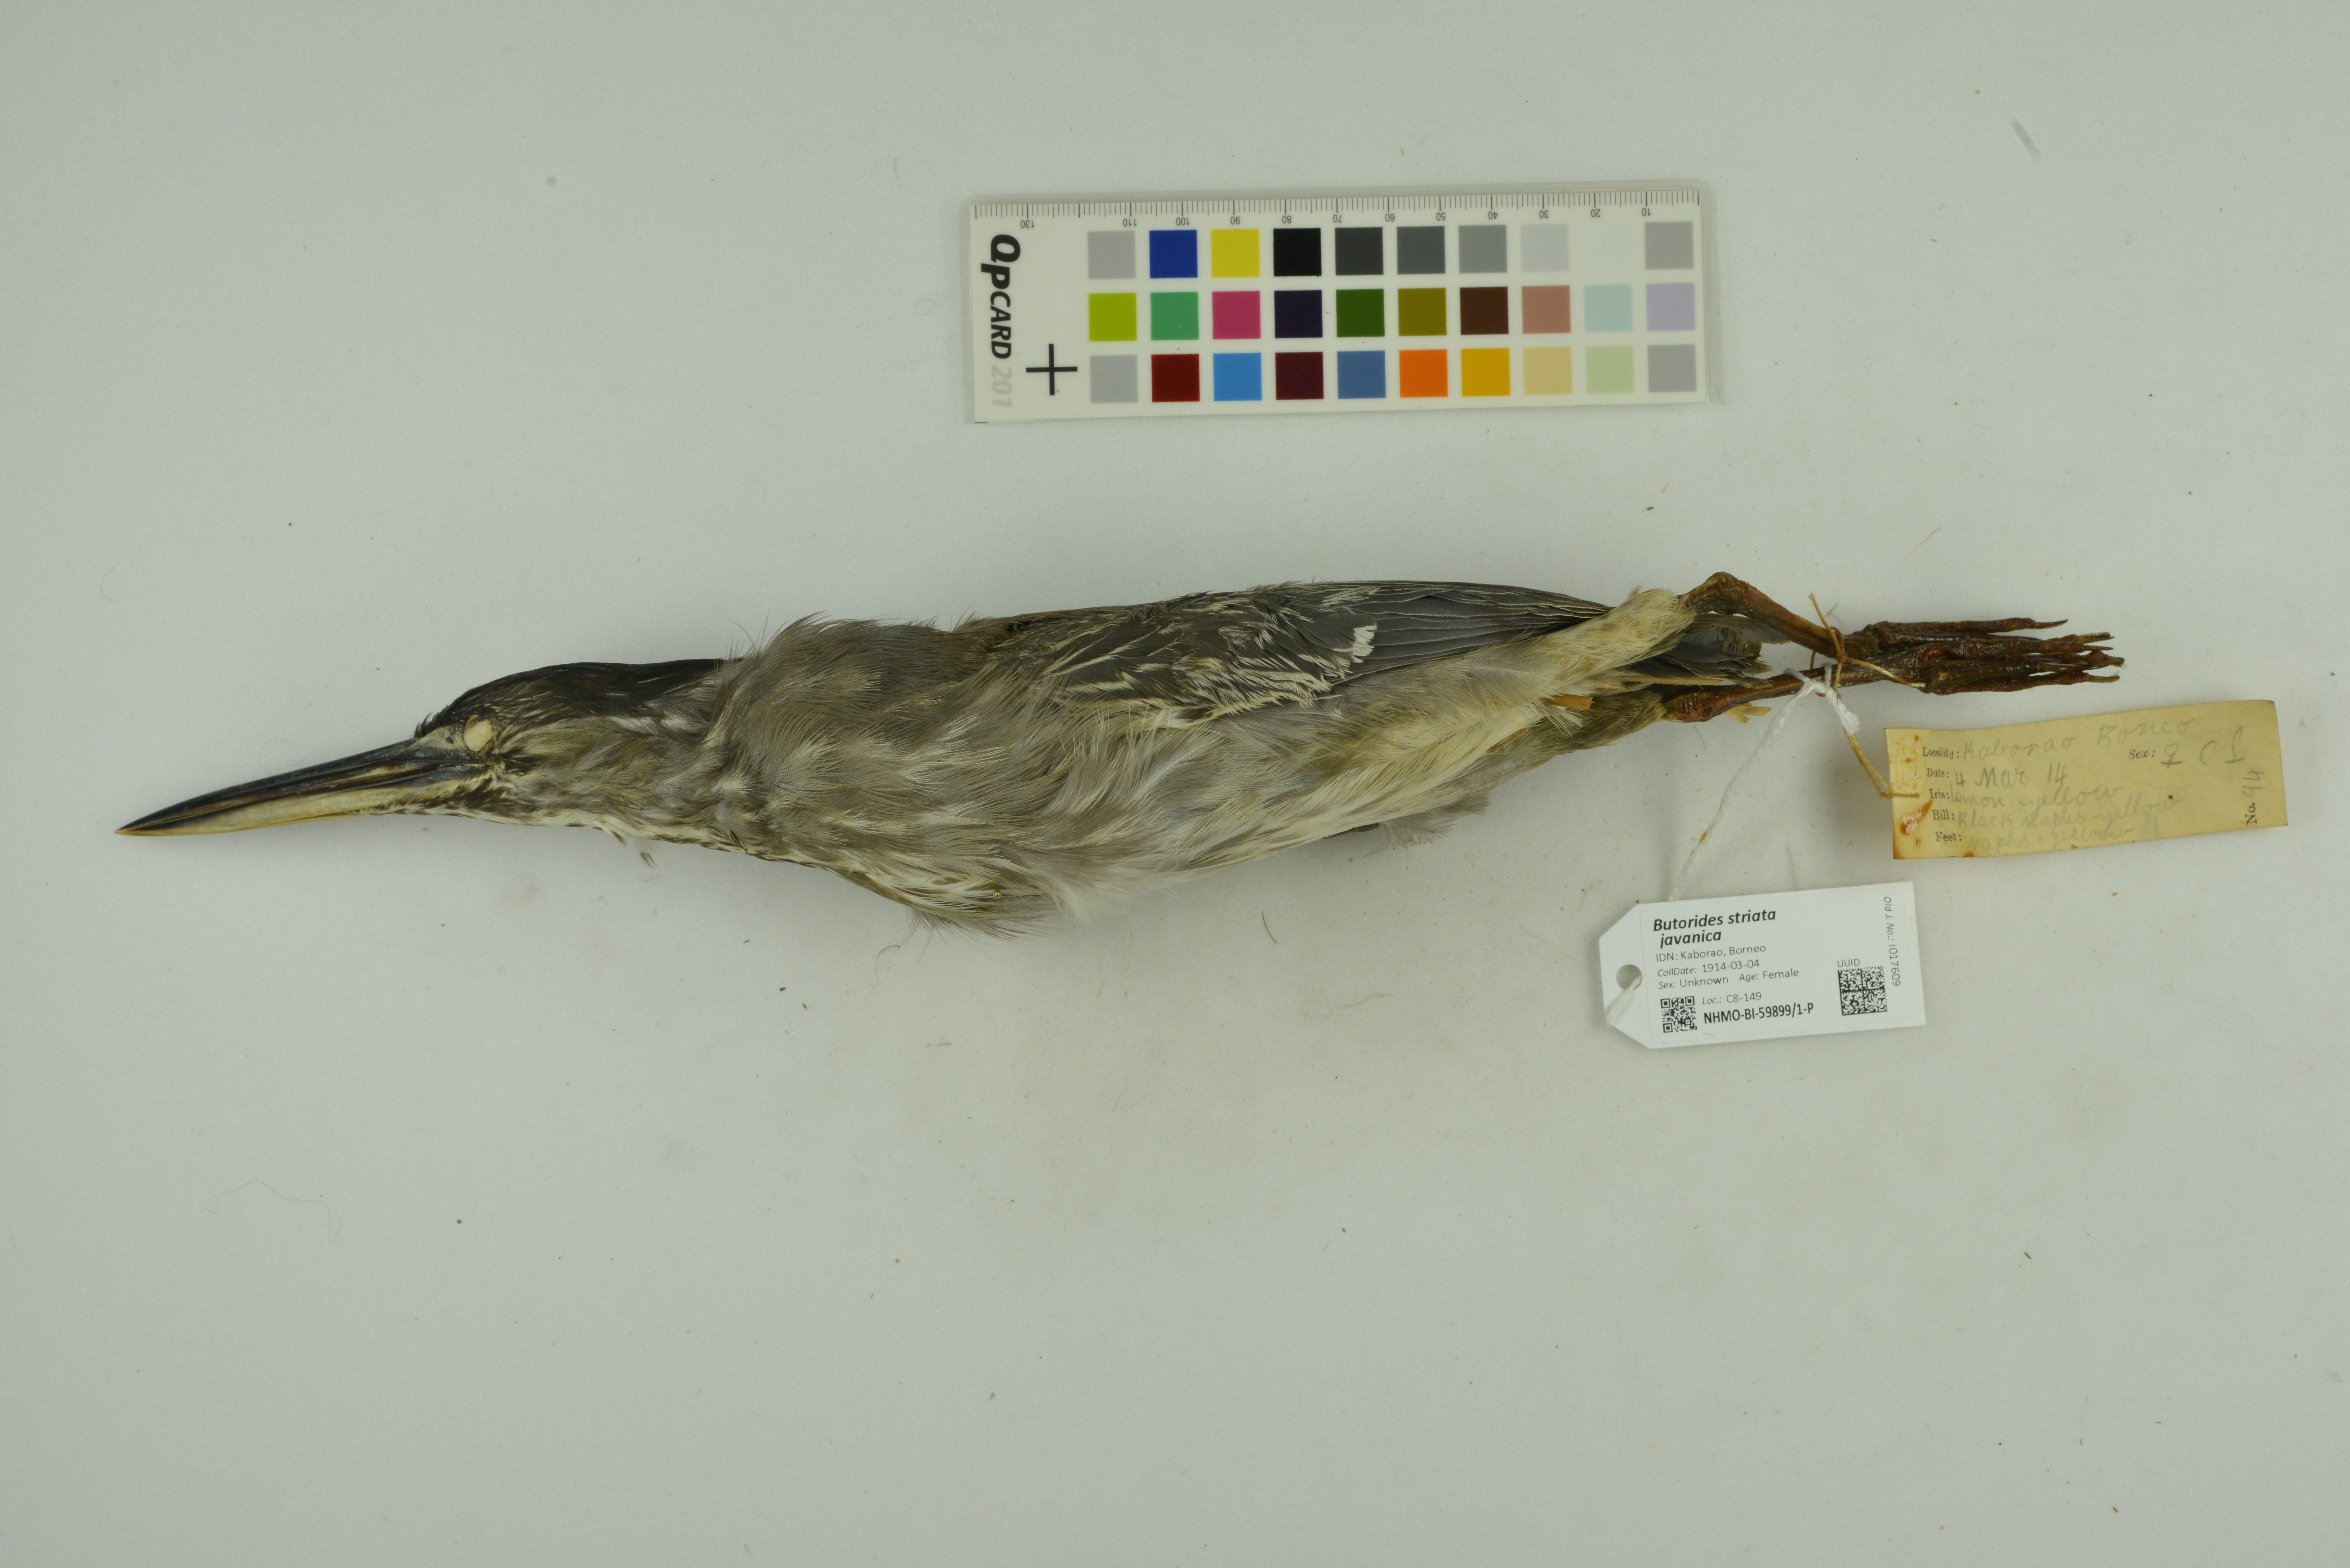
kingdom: Animalia
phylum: Chordata
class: Aves
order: Pelecaniformes
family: Ardeidae
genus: Butorides
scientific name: Butorides striata
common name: Striated heron
